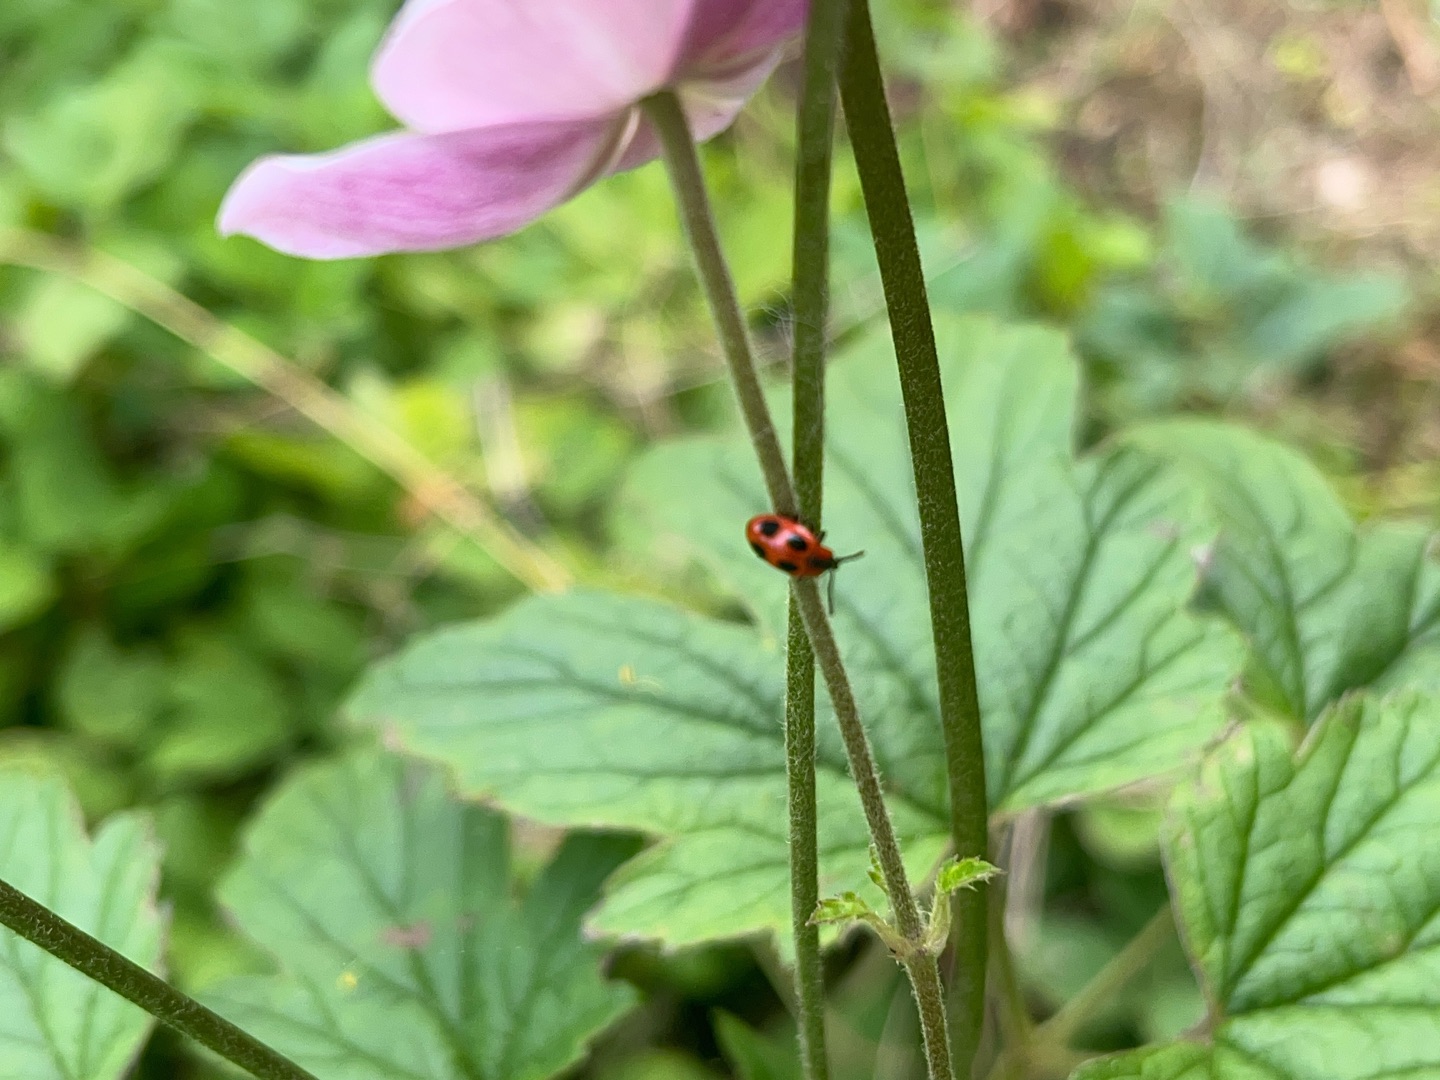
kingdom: Animalia
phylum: Arthropoda
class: Insecta
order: Coleoptera
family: Endomychidae
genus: Endomychus
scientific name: Endomychus coccineus
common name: Skarlagensvampehøne
